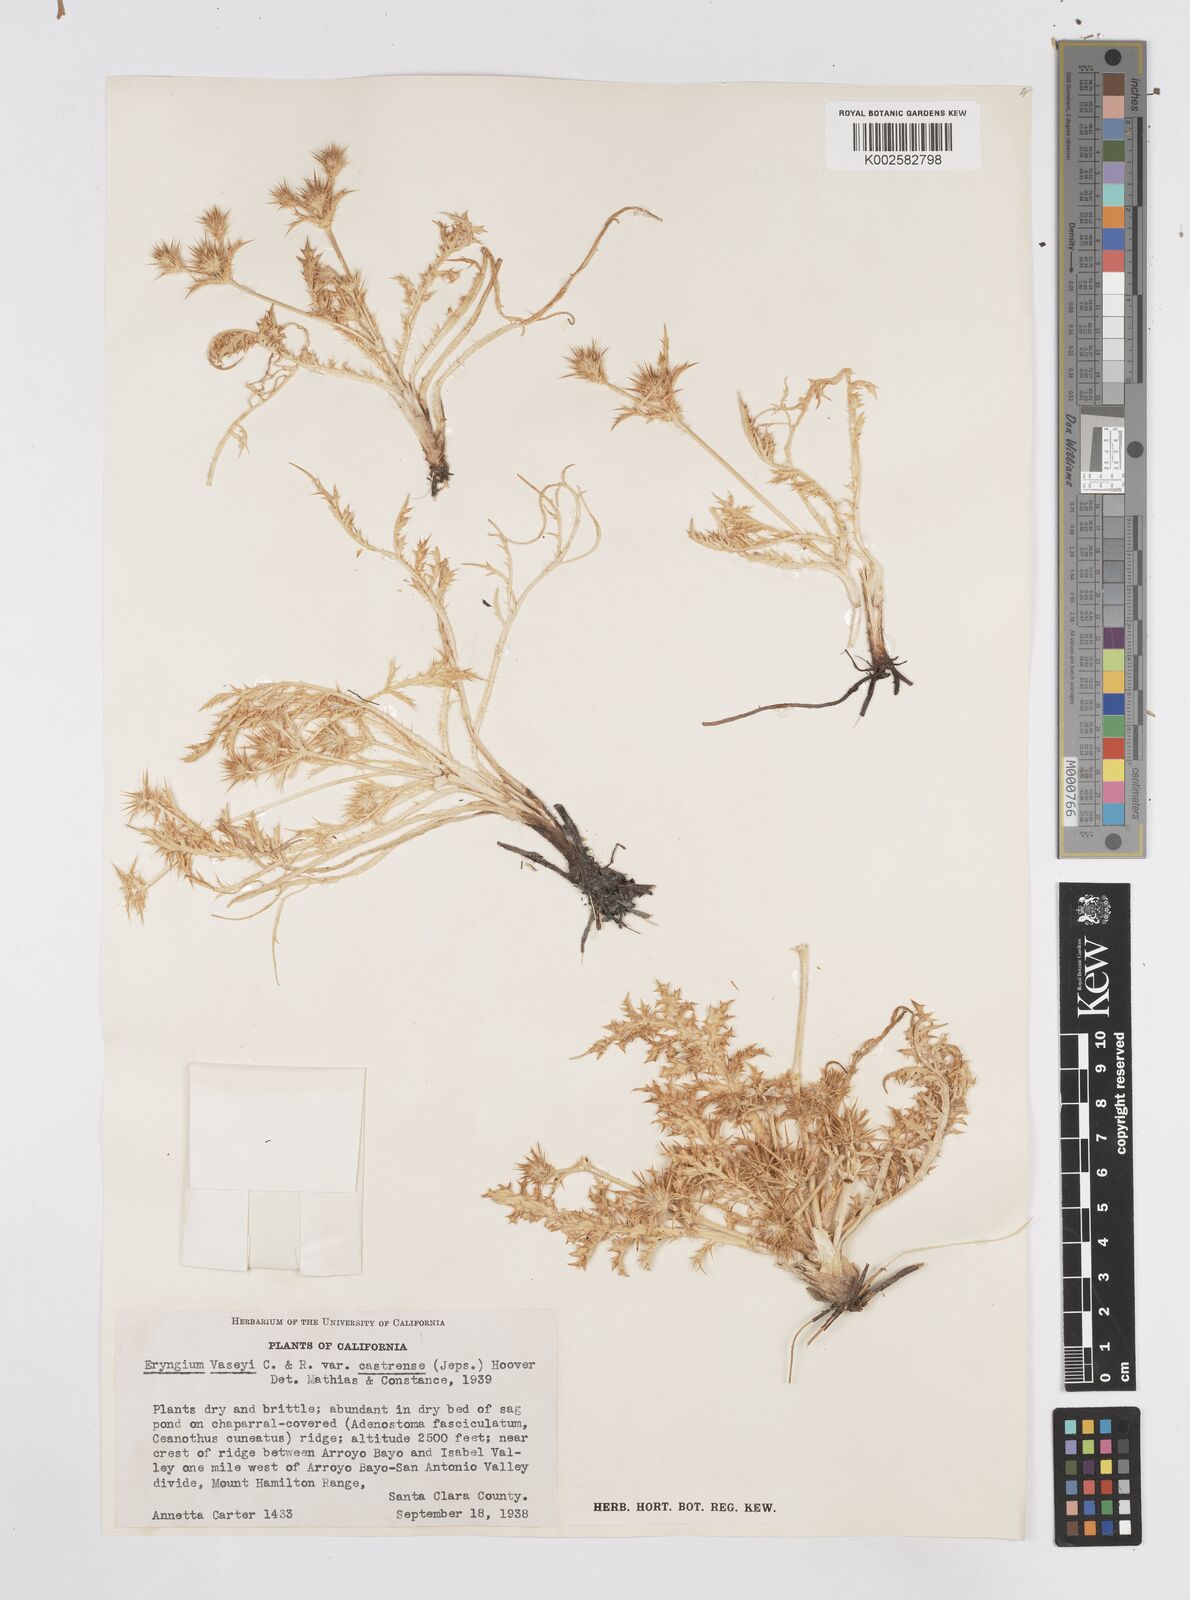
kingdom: Plantae
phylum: Tracheophyta
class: Magnoliopsida
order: Apiales
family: Apiaceae
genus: Eryngium
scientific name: Eryngium castrense
